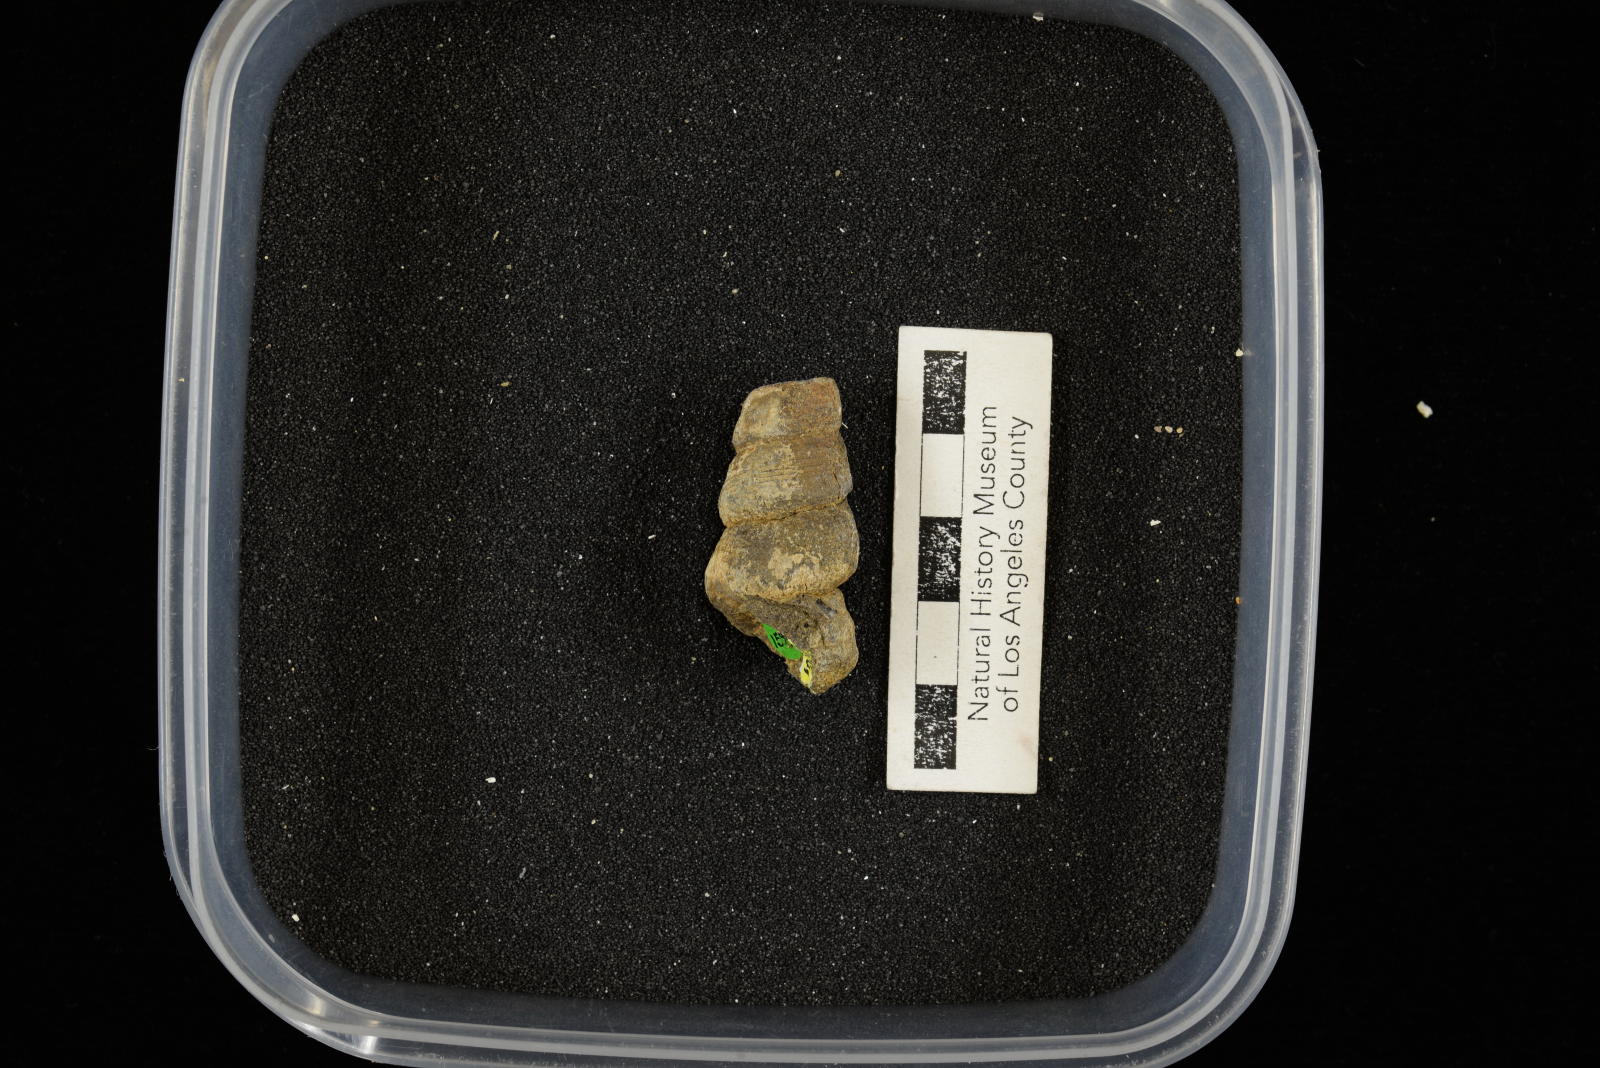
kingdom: Animalia
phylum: Mollusca
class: Gastropoda
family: Turritellidae
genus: Turritella
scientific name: Turritella chaneyi
